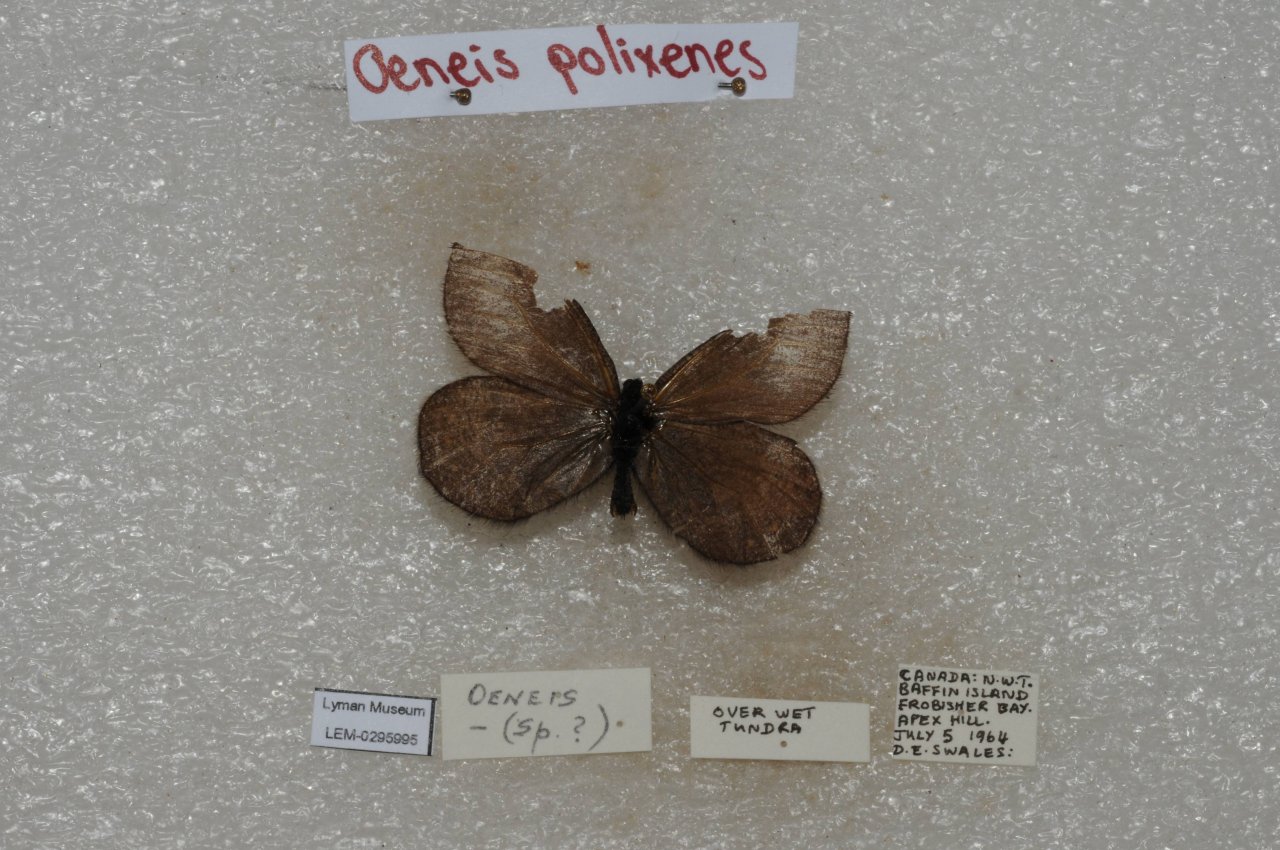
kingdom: Animalia
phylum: Arthropoda
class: Insecta
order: Lepidoptera
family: Nymphalidae
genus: Oeneis
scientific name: Oeneis bore
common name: Polixenes Arctic
